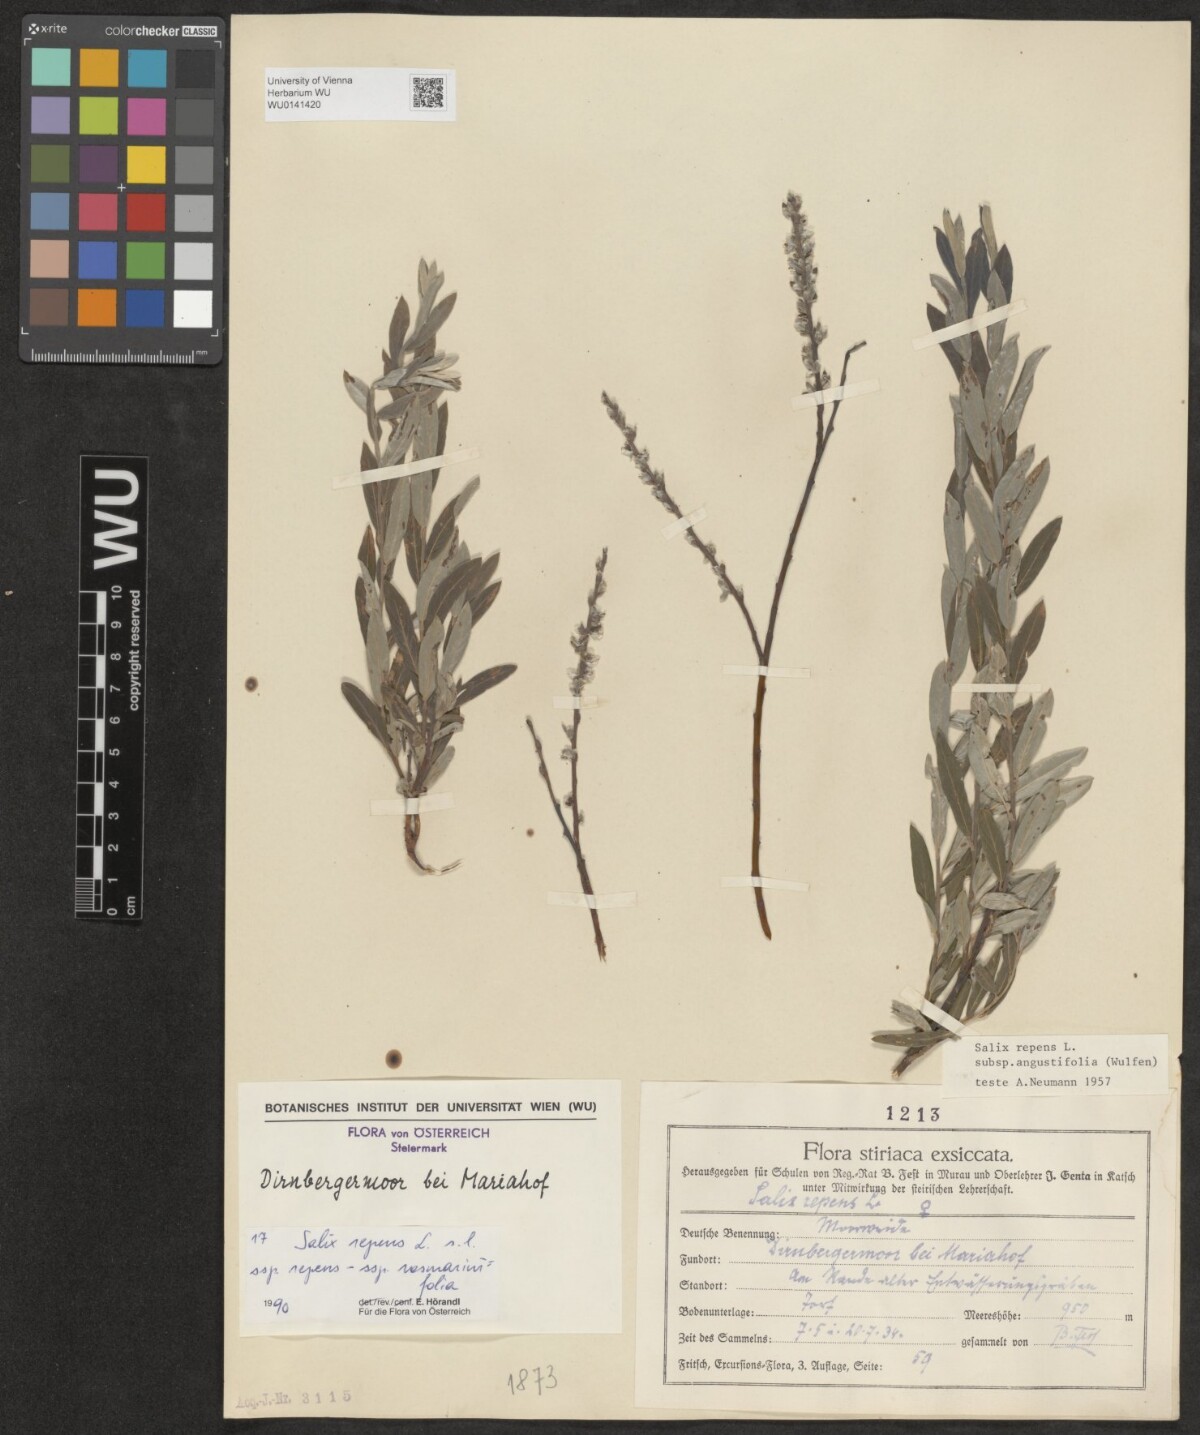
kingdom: Plantae
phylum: Tracheophyta
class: Magnoliopsida
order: Malpighiales
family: Salicaceae
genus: Salix
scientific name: Salix repens
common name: Creeping willow
